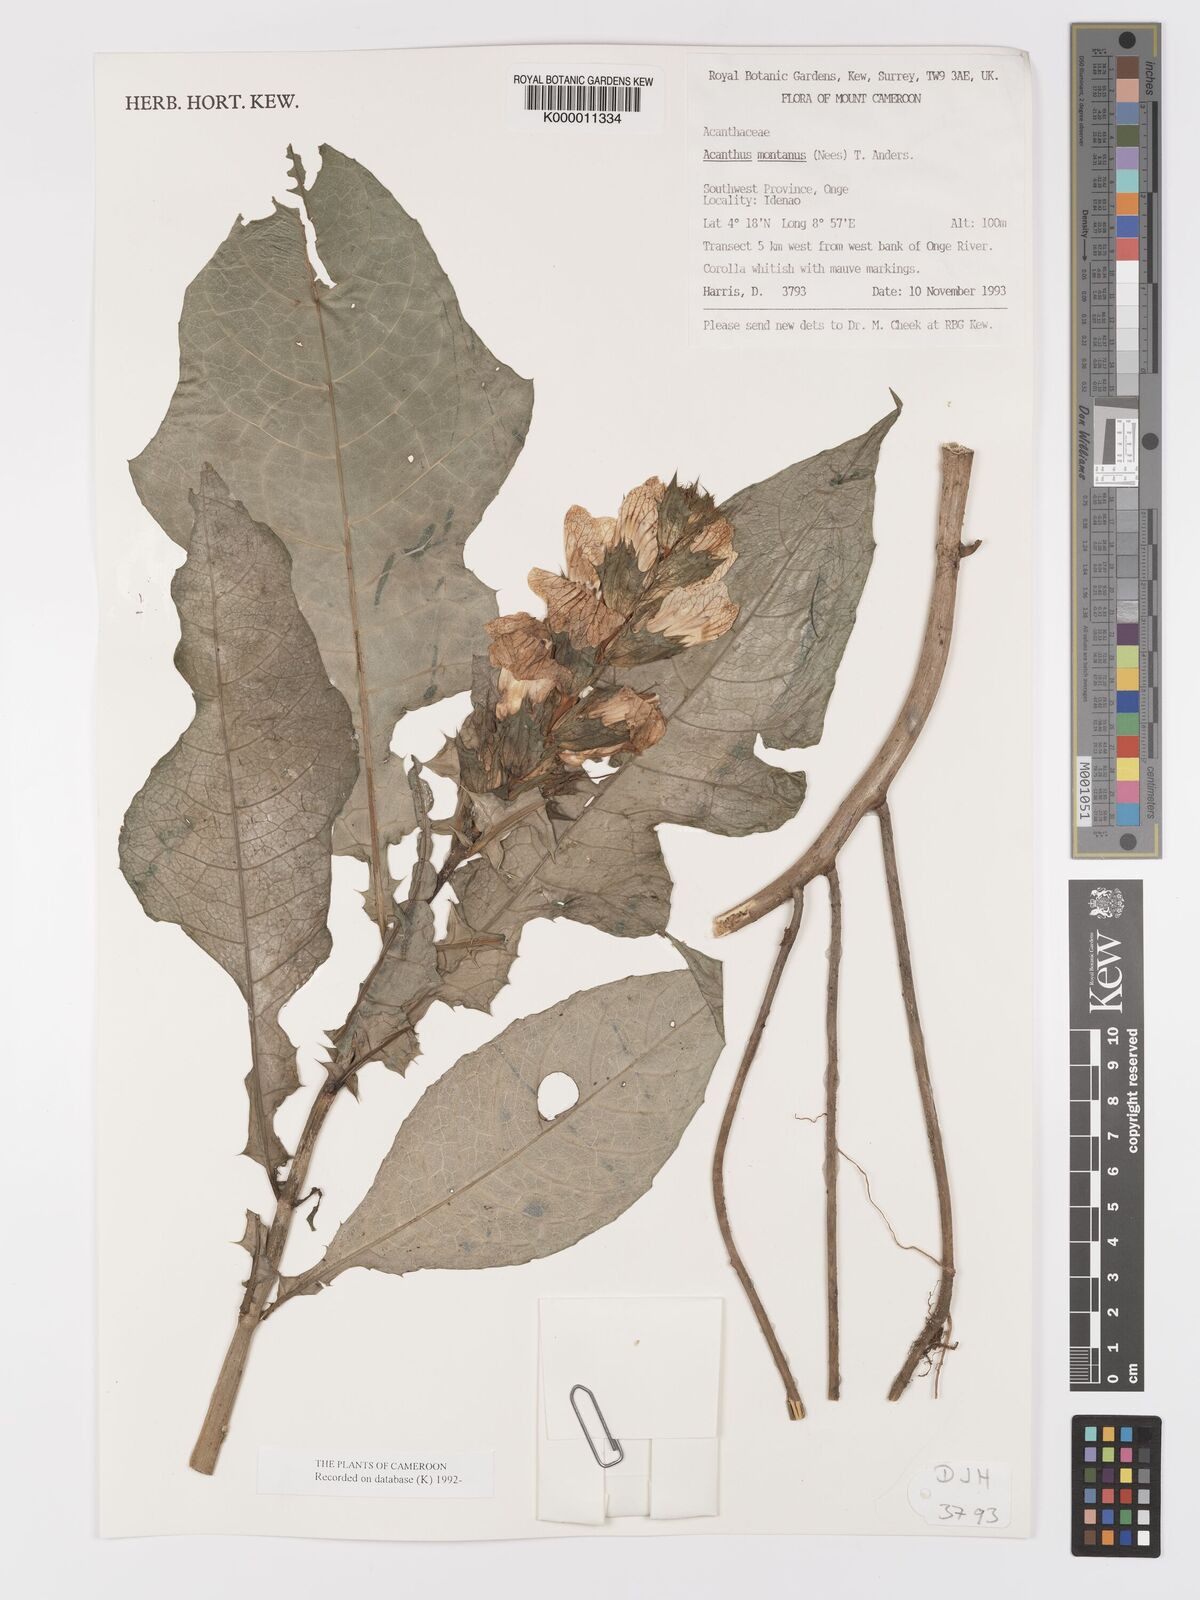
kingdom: Plantae
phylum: Tracheophyta
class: Magnoliopsida
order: Lamiales
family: Acanthaceae
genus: Acanthus
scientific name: Acanthus montanus
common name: Mountain thistle
